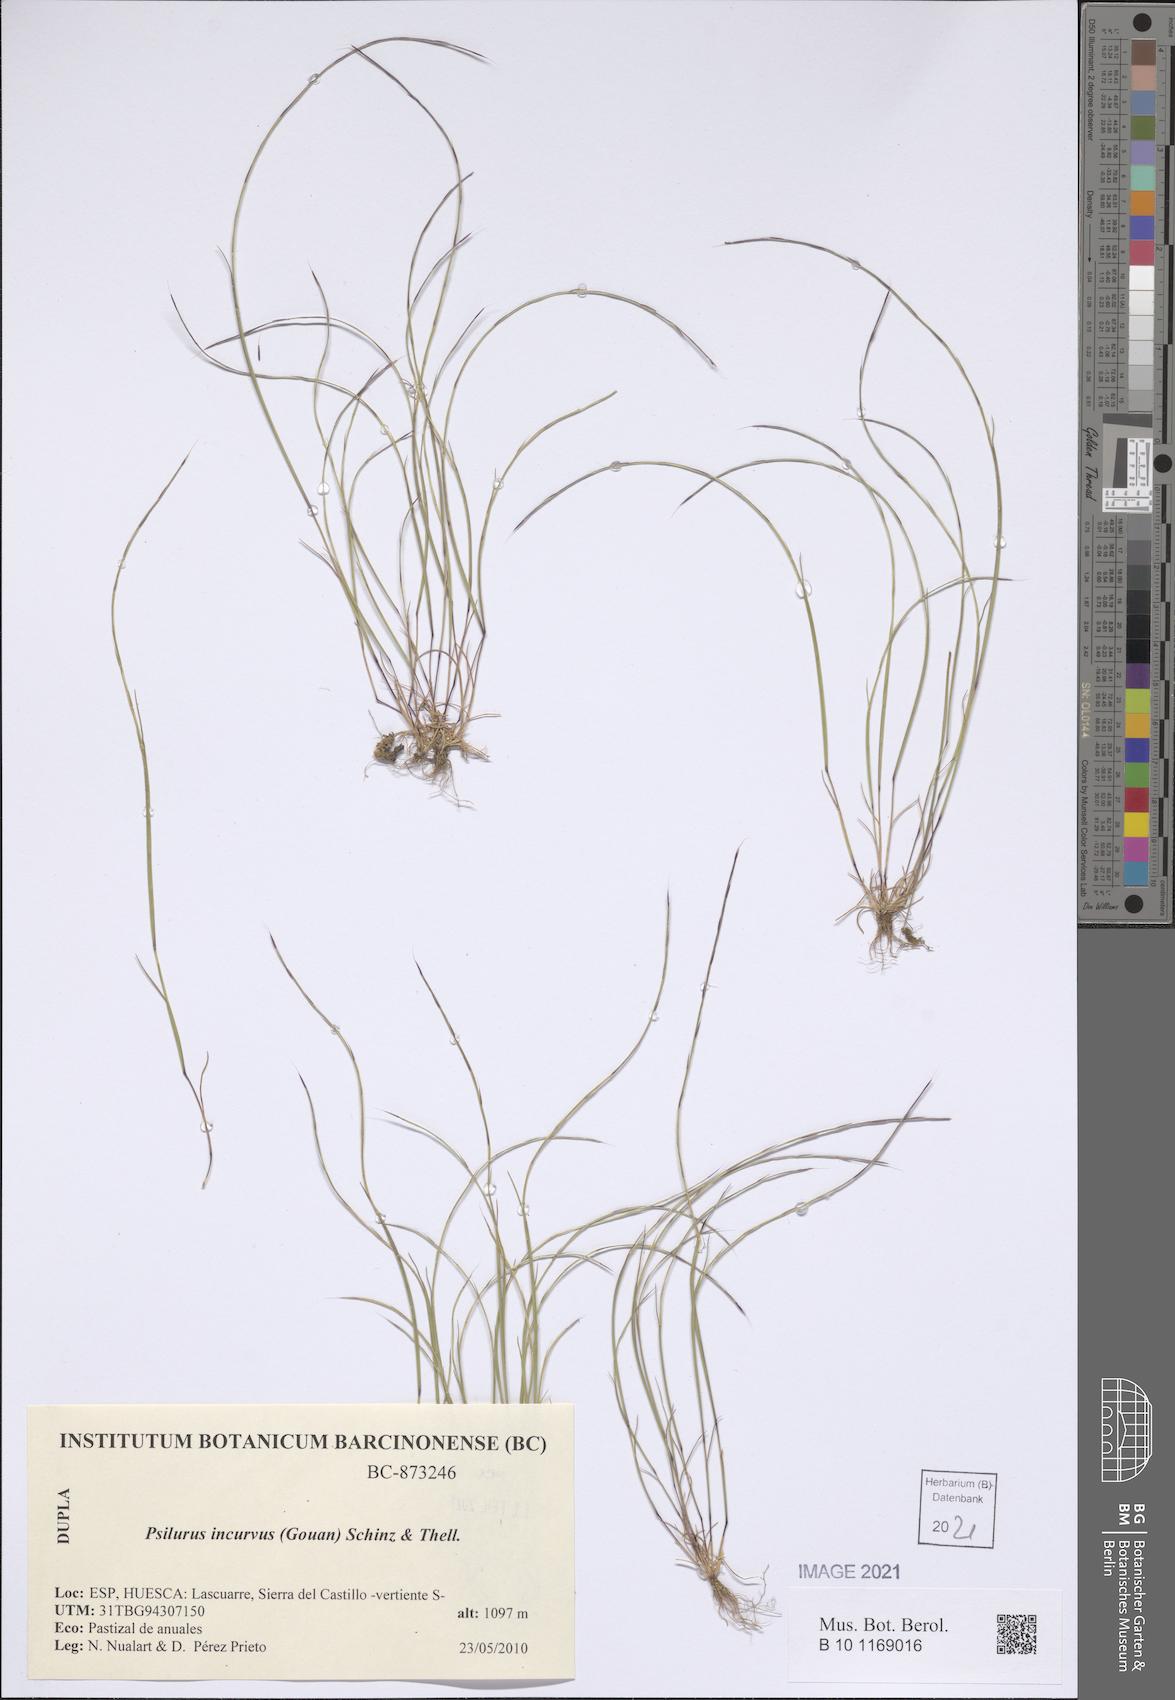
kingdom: Plantae
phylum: Tracheophyta
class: Liliopsida
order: Poales
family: Poaceae
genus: Festuca
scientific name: Festuca incurva
